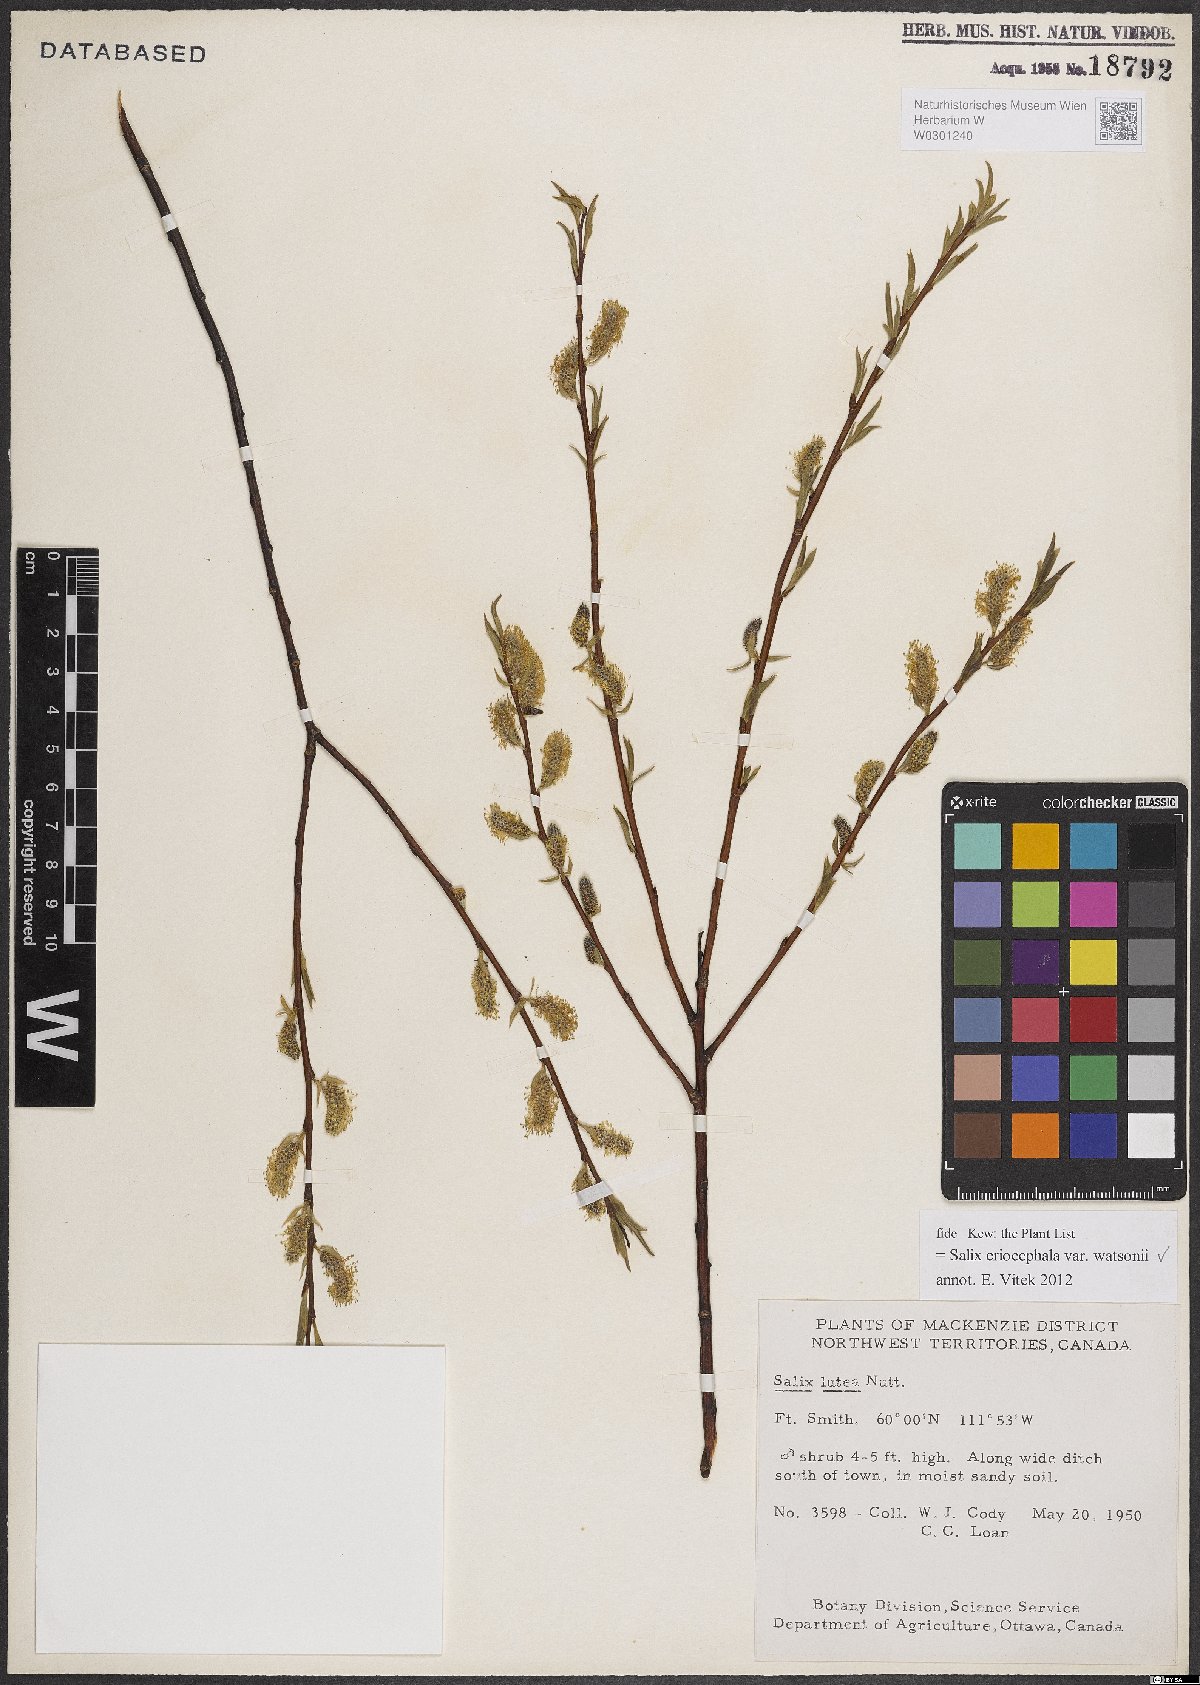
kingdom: Plantae
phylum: Tracheophyta
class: Magnoliopsida
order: Malpighiales
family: Salicaceae
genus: Salix
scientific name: Salix lutea
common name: Yellow willow
